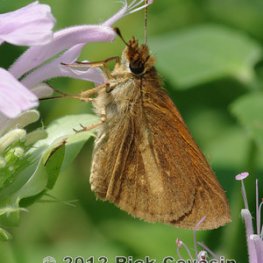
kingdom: Animalia
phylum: Arthropoda
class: Insecta
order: Lepidoptera
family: Hesperiidae
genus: Poanes
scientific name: Poanes viator
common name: Broad-winged Skipper
